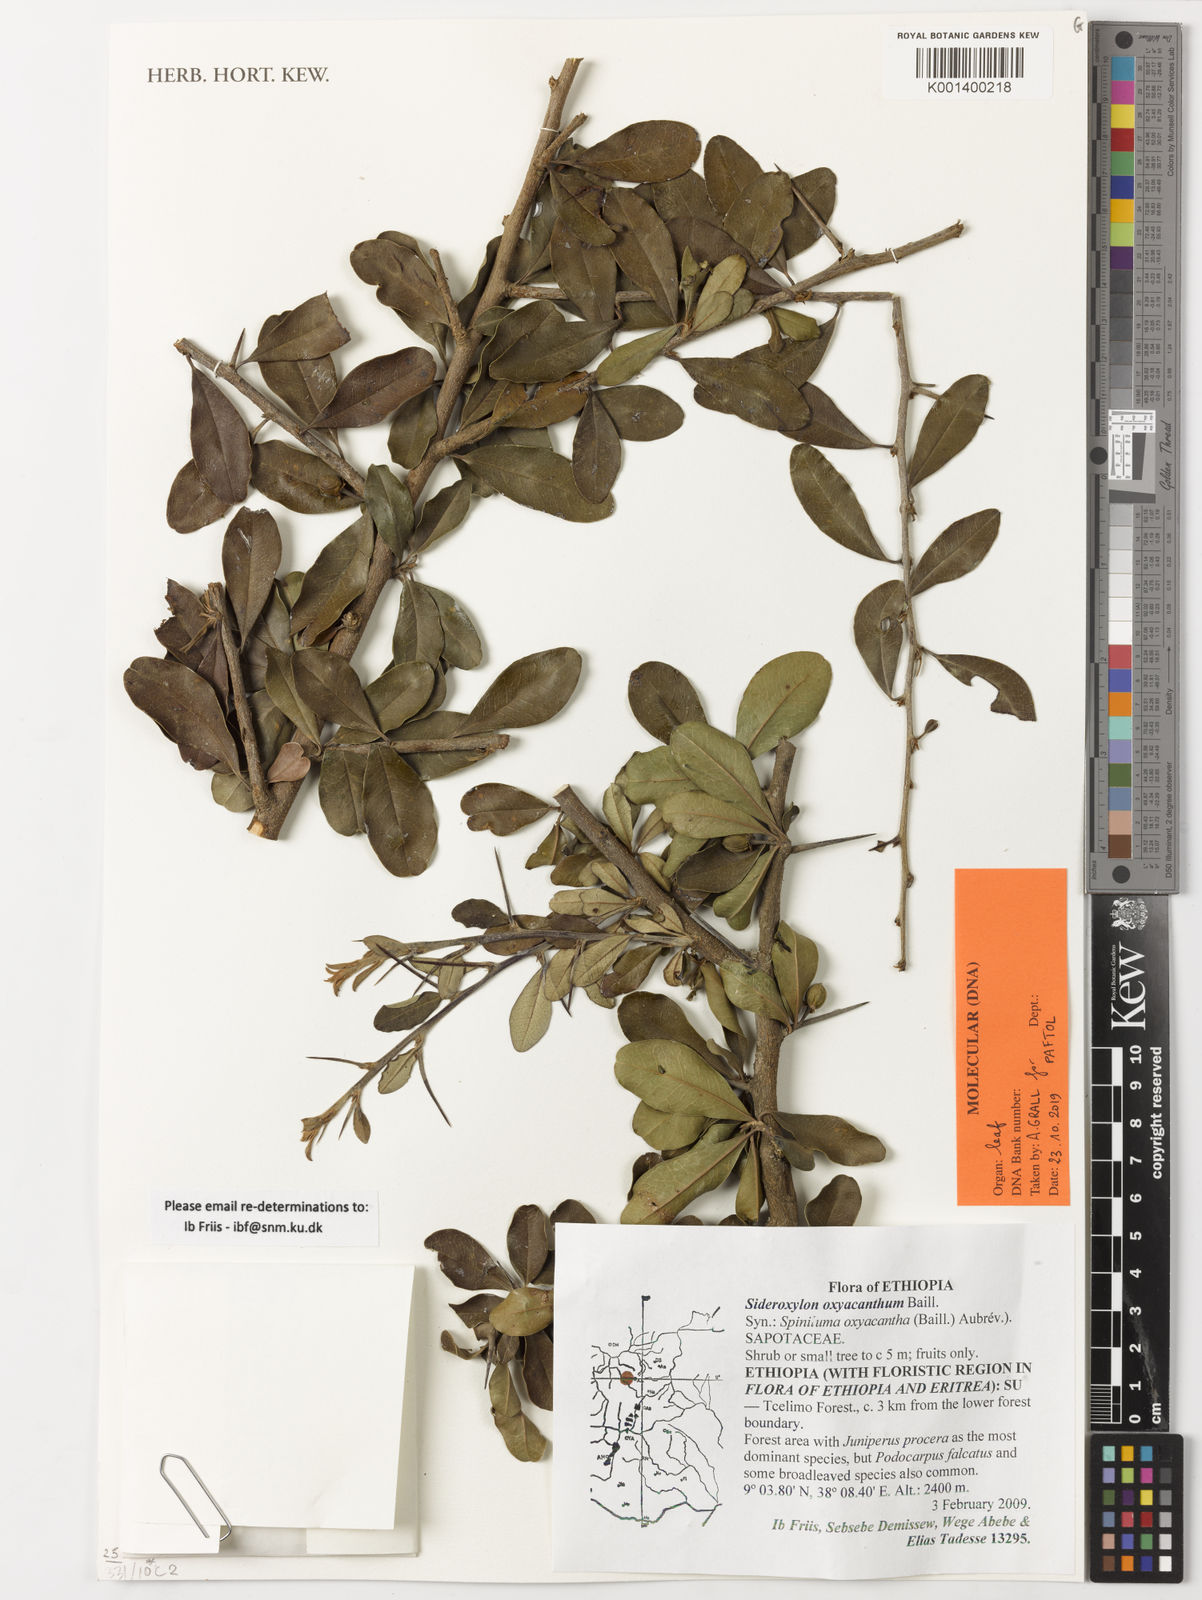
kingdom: Plantae
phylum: Tracheophyta
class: Magnoliopsida
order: Ericales
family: Sapotaceae
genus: Spiniluma
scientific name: Spiniluma oxyacantha
